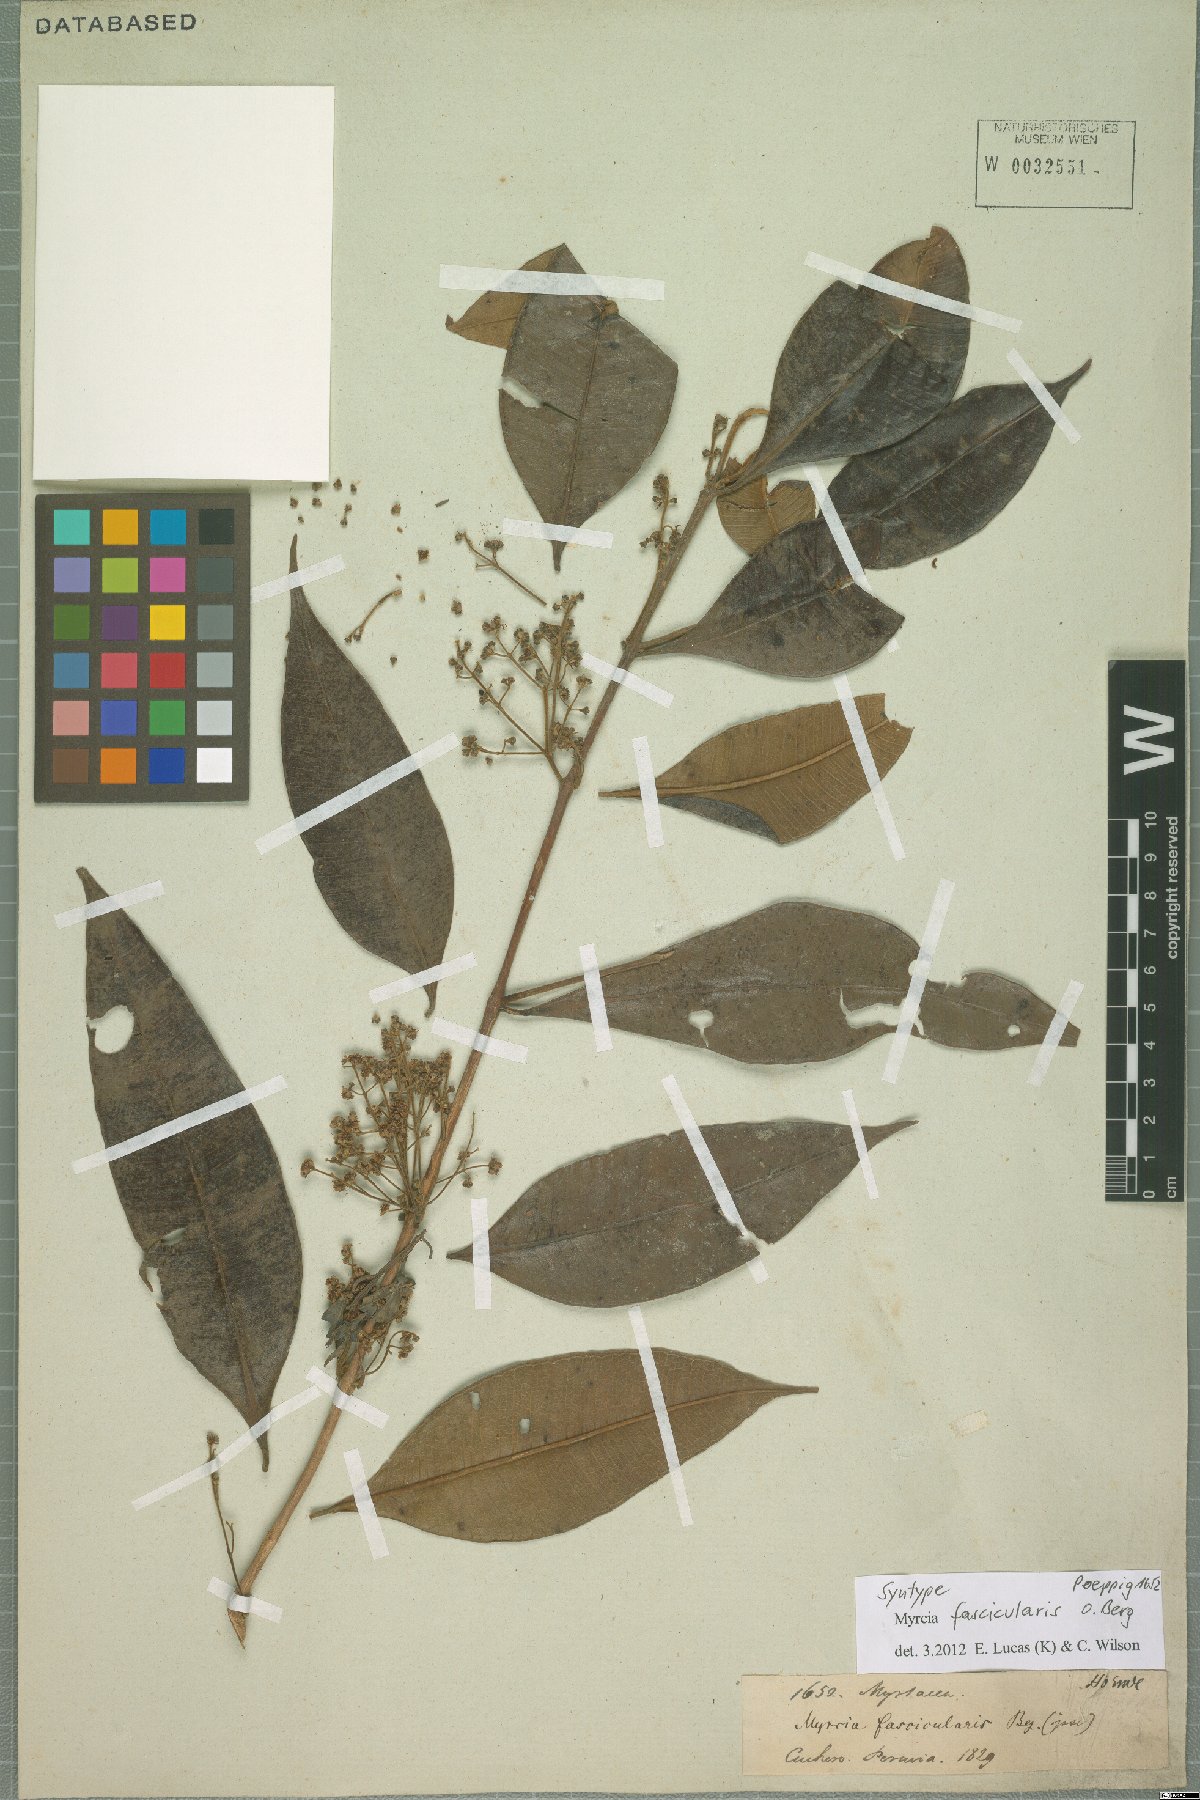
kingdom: Plantae
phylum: Tracheophyta
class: Magnoliopsida
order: Myrtales
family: Myrtaceae
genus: Myrcia
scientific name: Myrcia fascicularis
